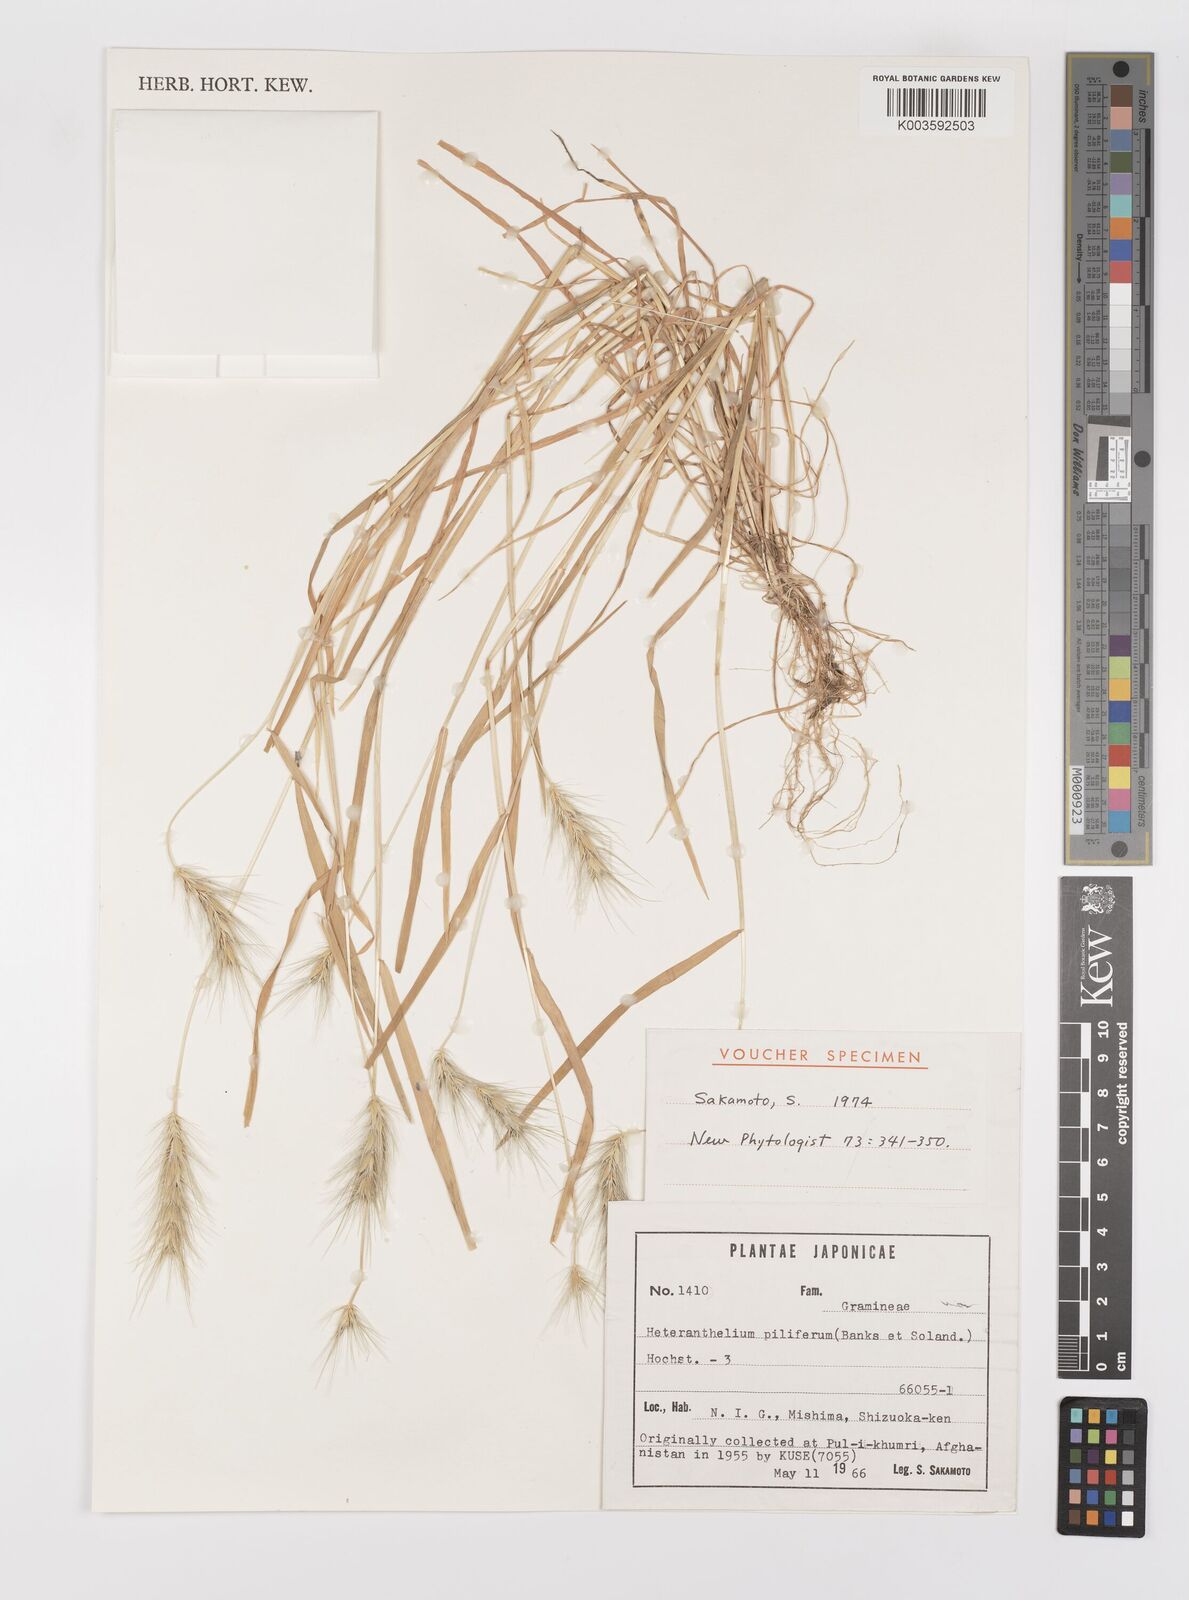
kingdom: Plantae
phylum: Tracheophyta
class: Liliopsida
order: Poales
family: Poaceae
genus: Heteranthelium
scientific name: Heteranthelium piliferum
